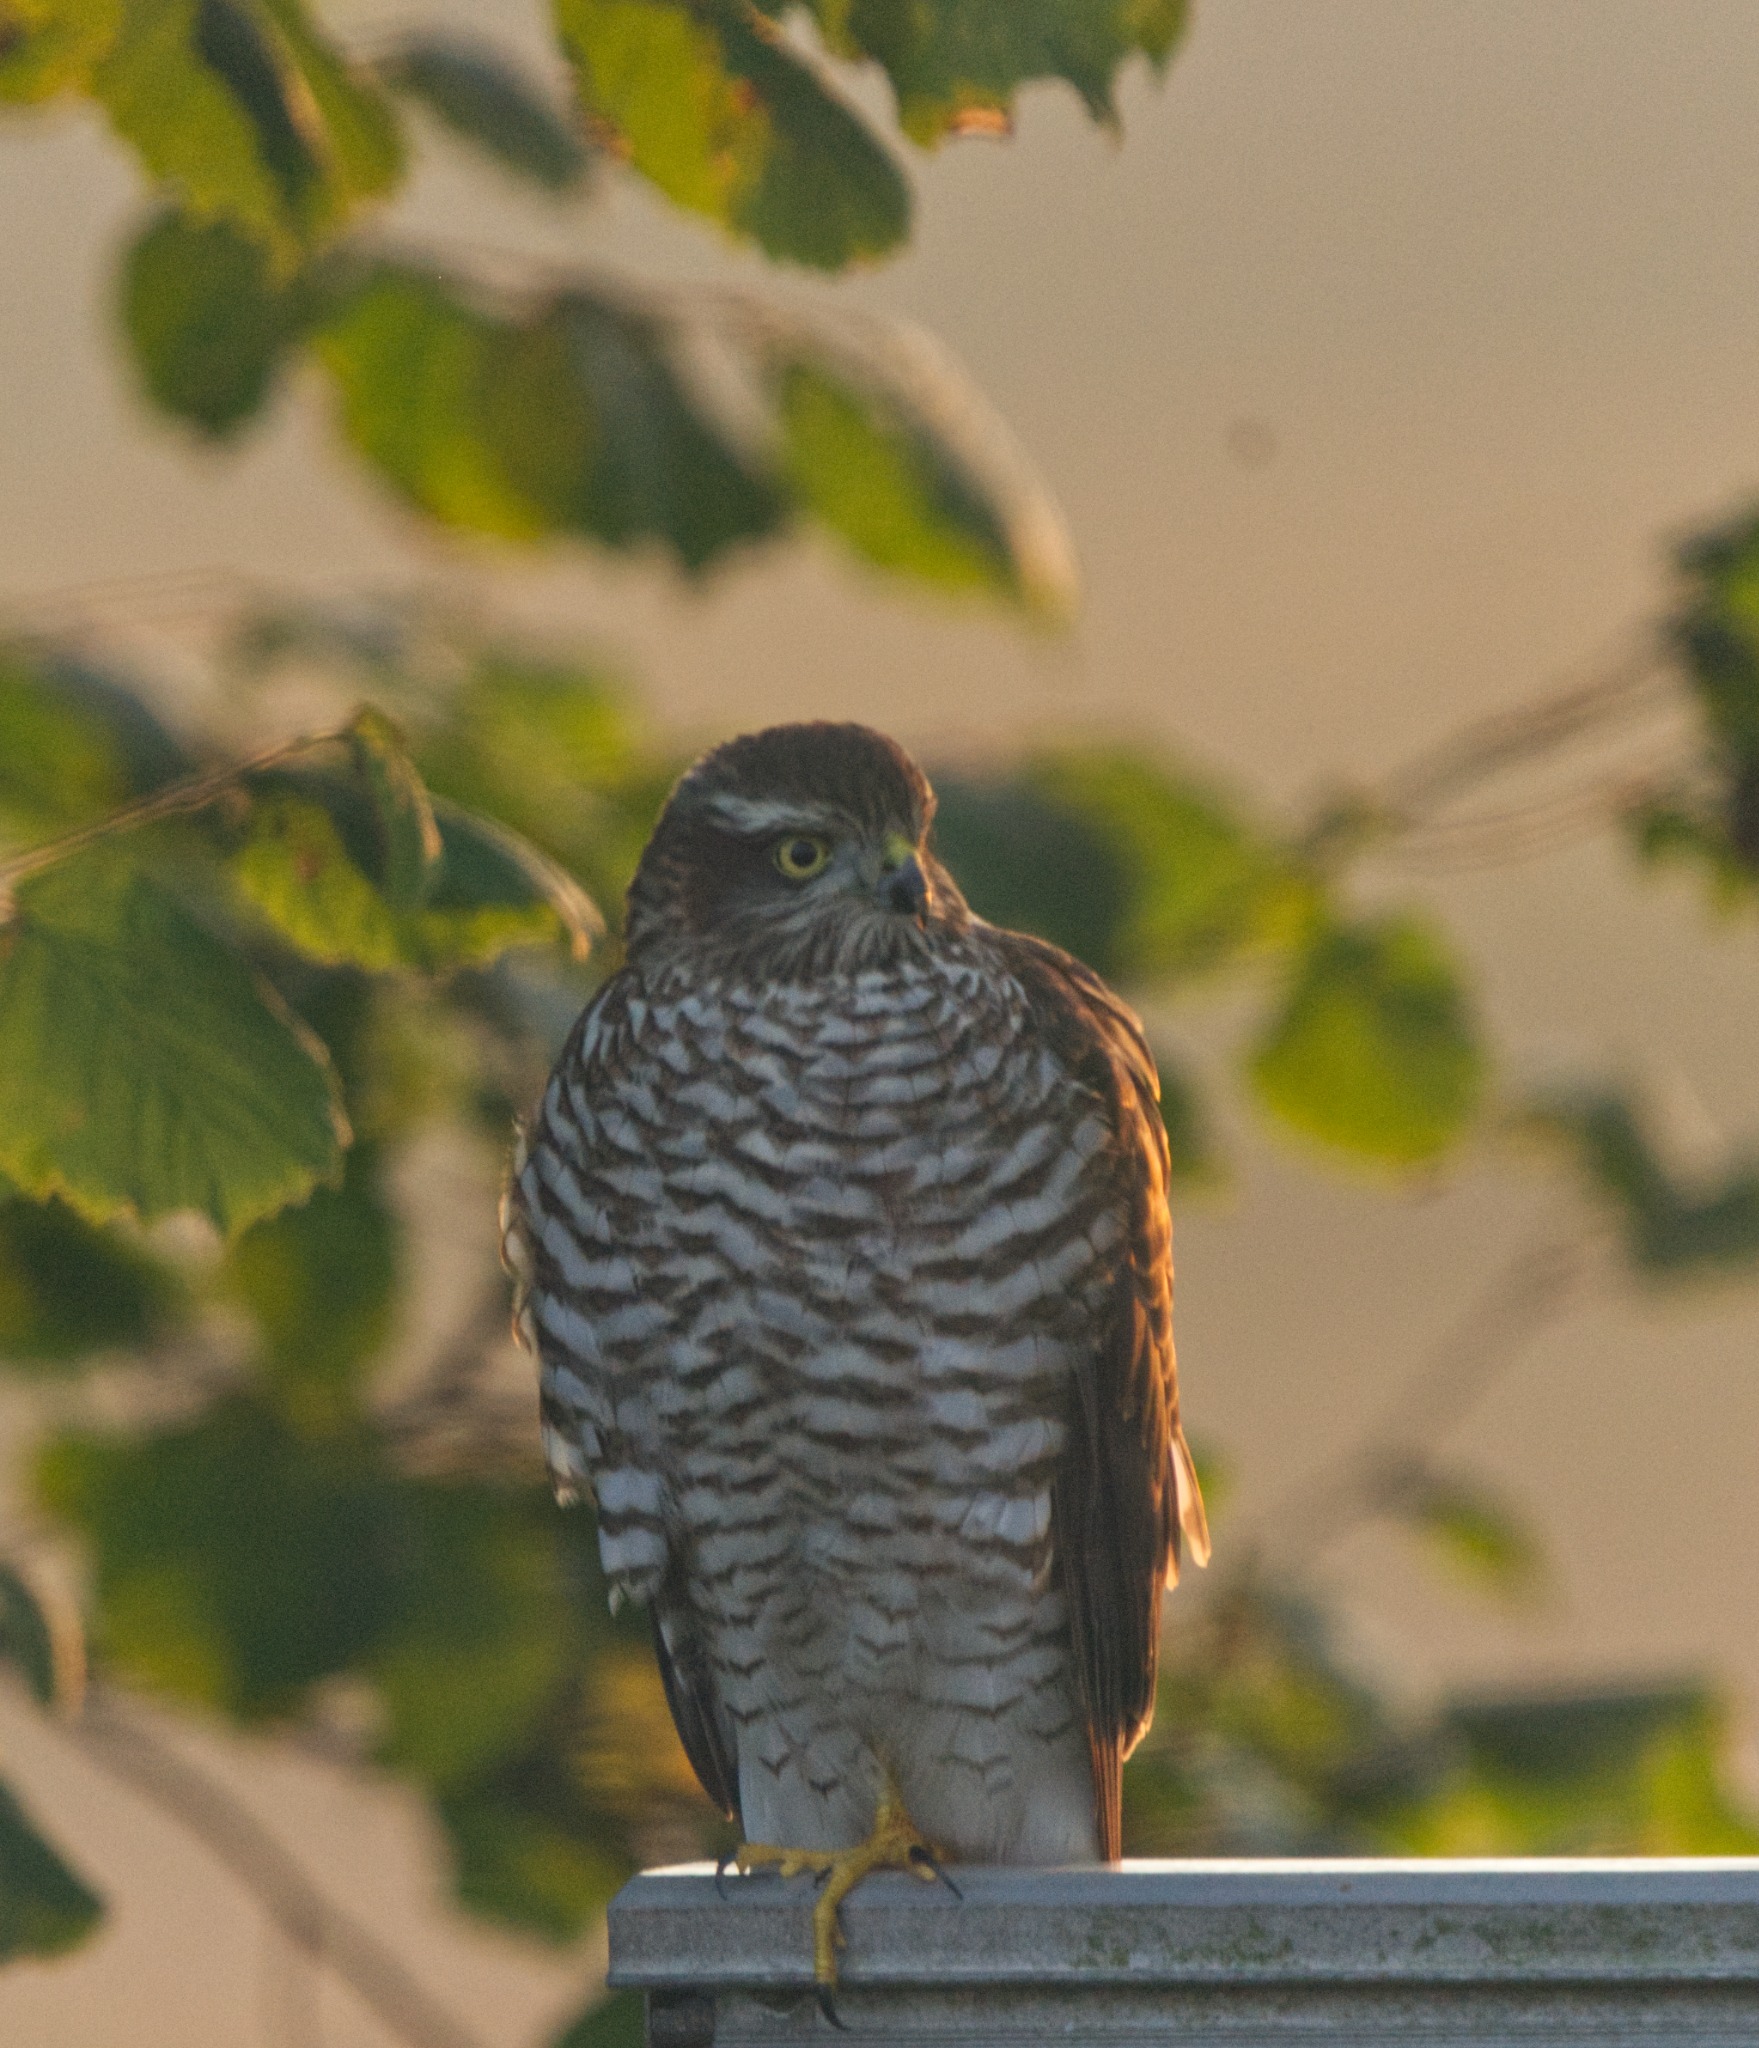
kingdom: Animalia
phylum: Chordata
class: Aves
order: Accipitriformes
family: Accipitridae
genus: Accipiter
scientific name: Accipiter nisus
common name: Spurvehøg
